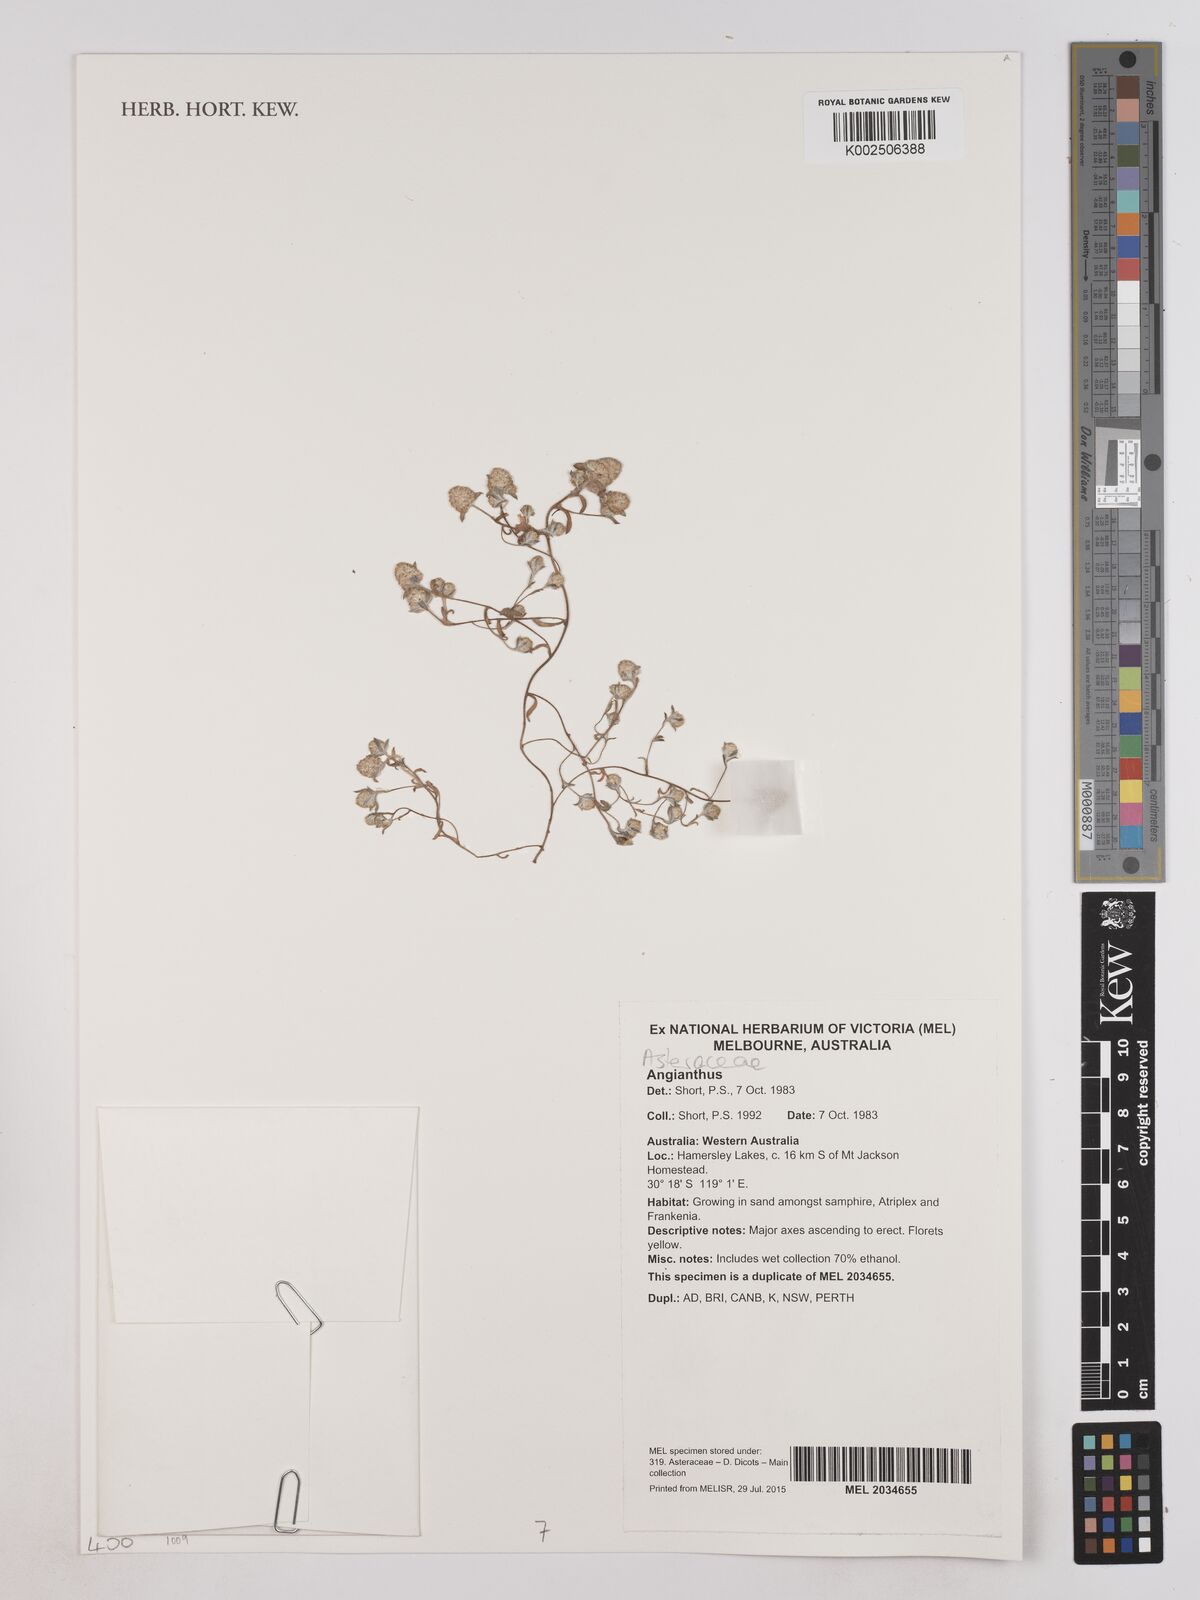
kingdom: Plantae
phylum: Tracheophyta
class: Magnoliopsida
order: Asterales
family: Asteraceae
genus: Angianthus
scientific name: Angianthus
